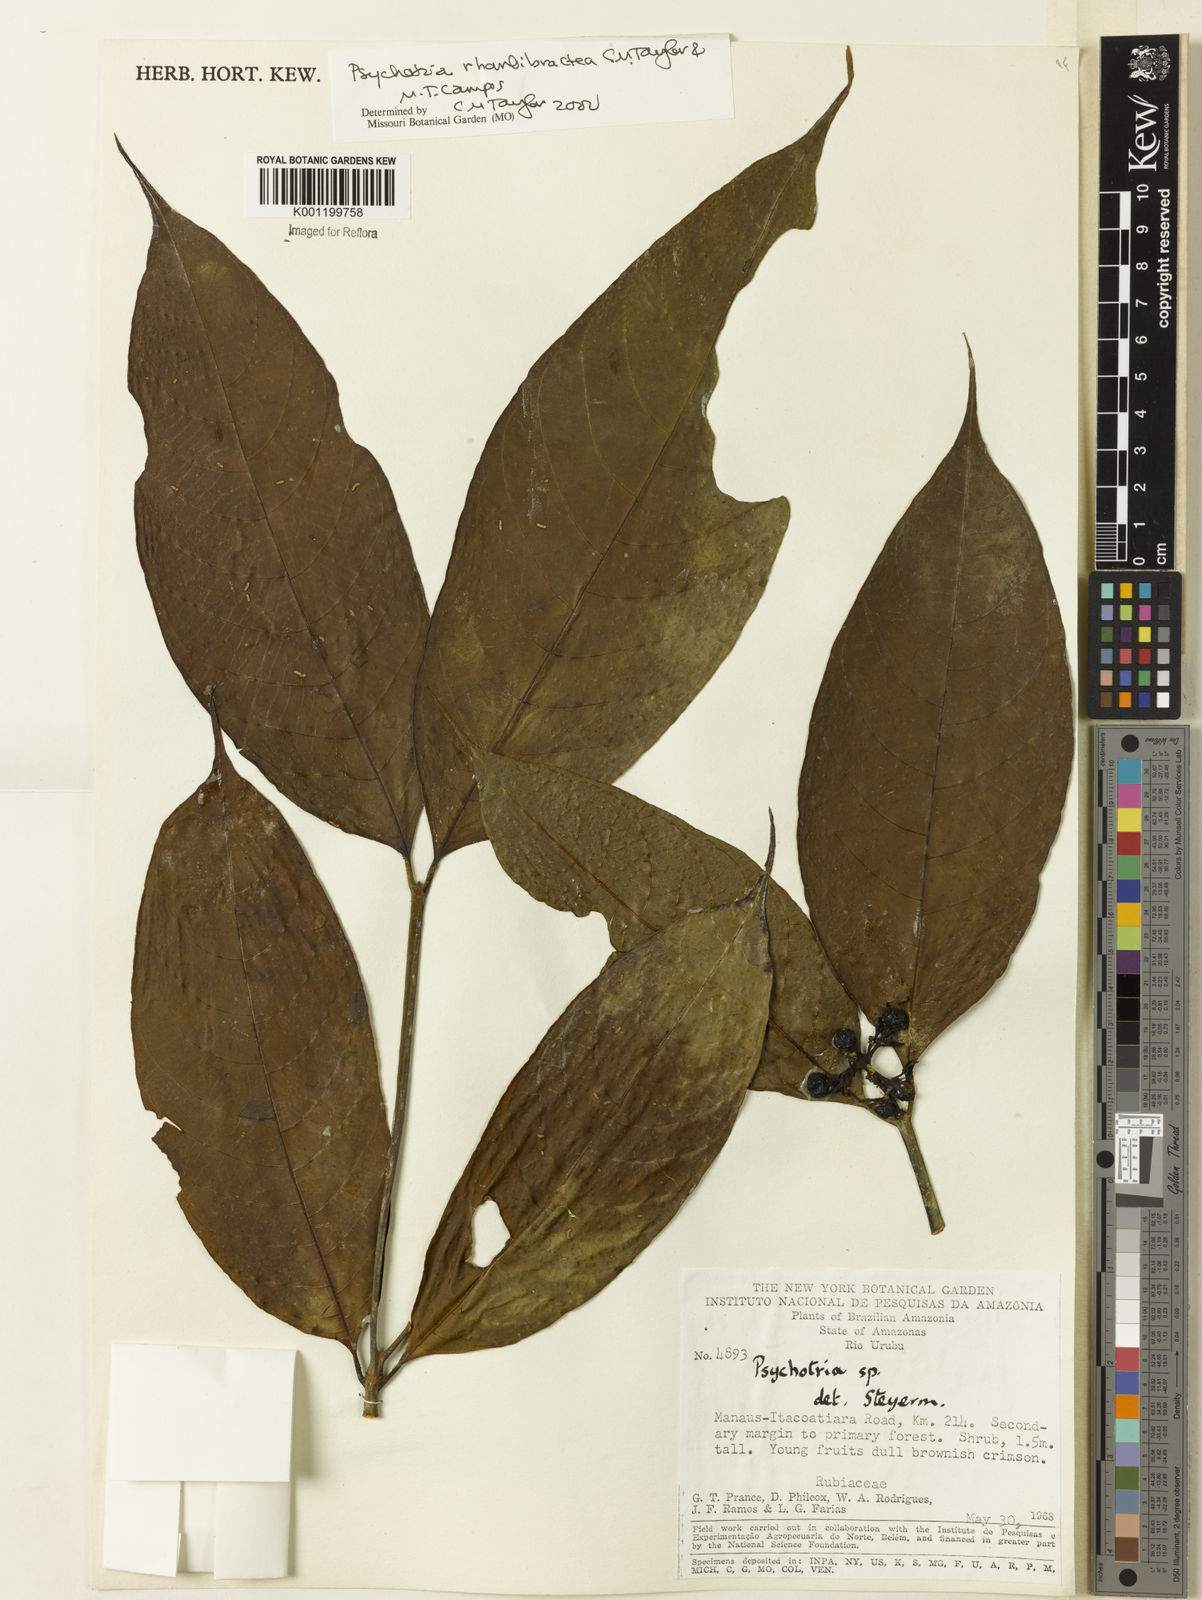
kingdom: Plantae
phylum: Tracheophyta
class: Magnoliopsida
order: Gentianales
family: Rubiaceae
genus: Psychotria
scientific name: Psychotria
